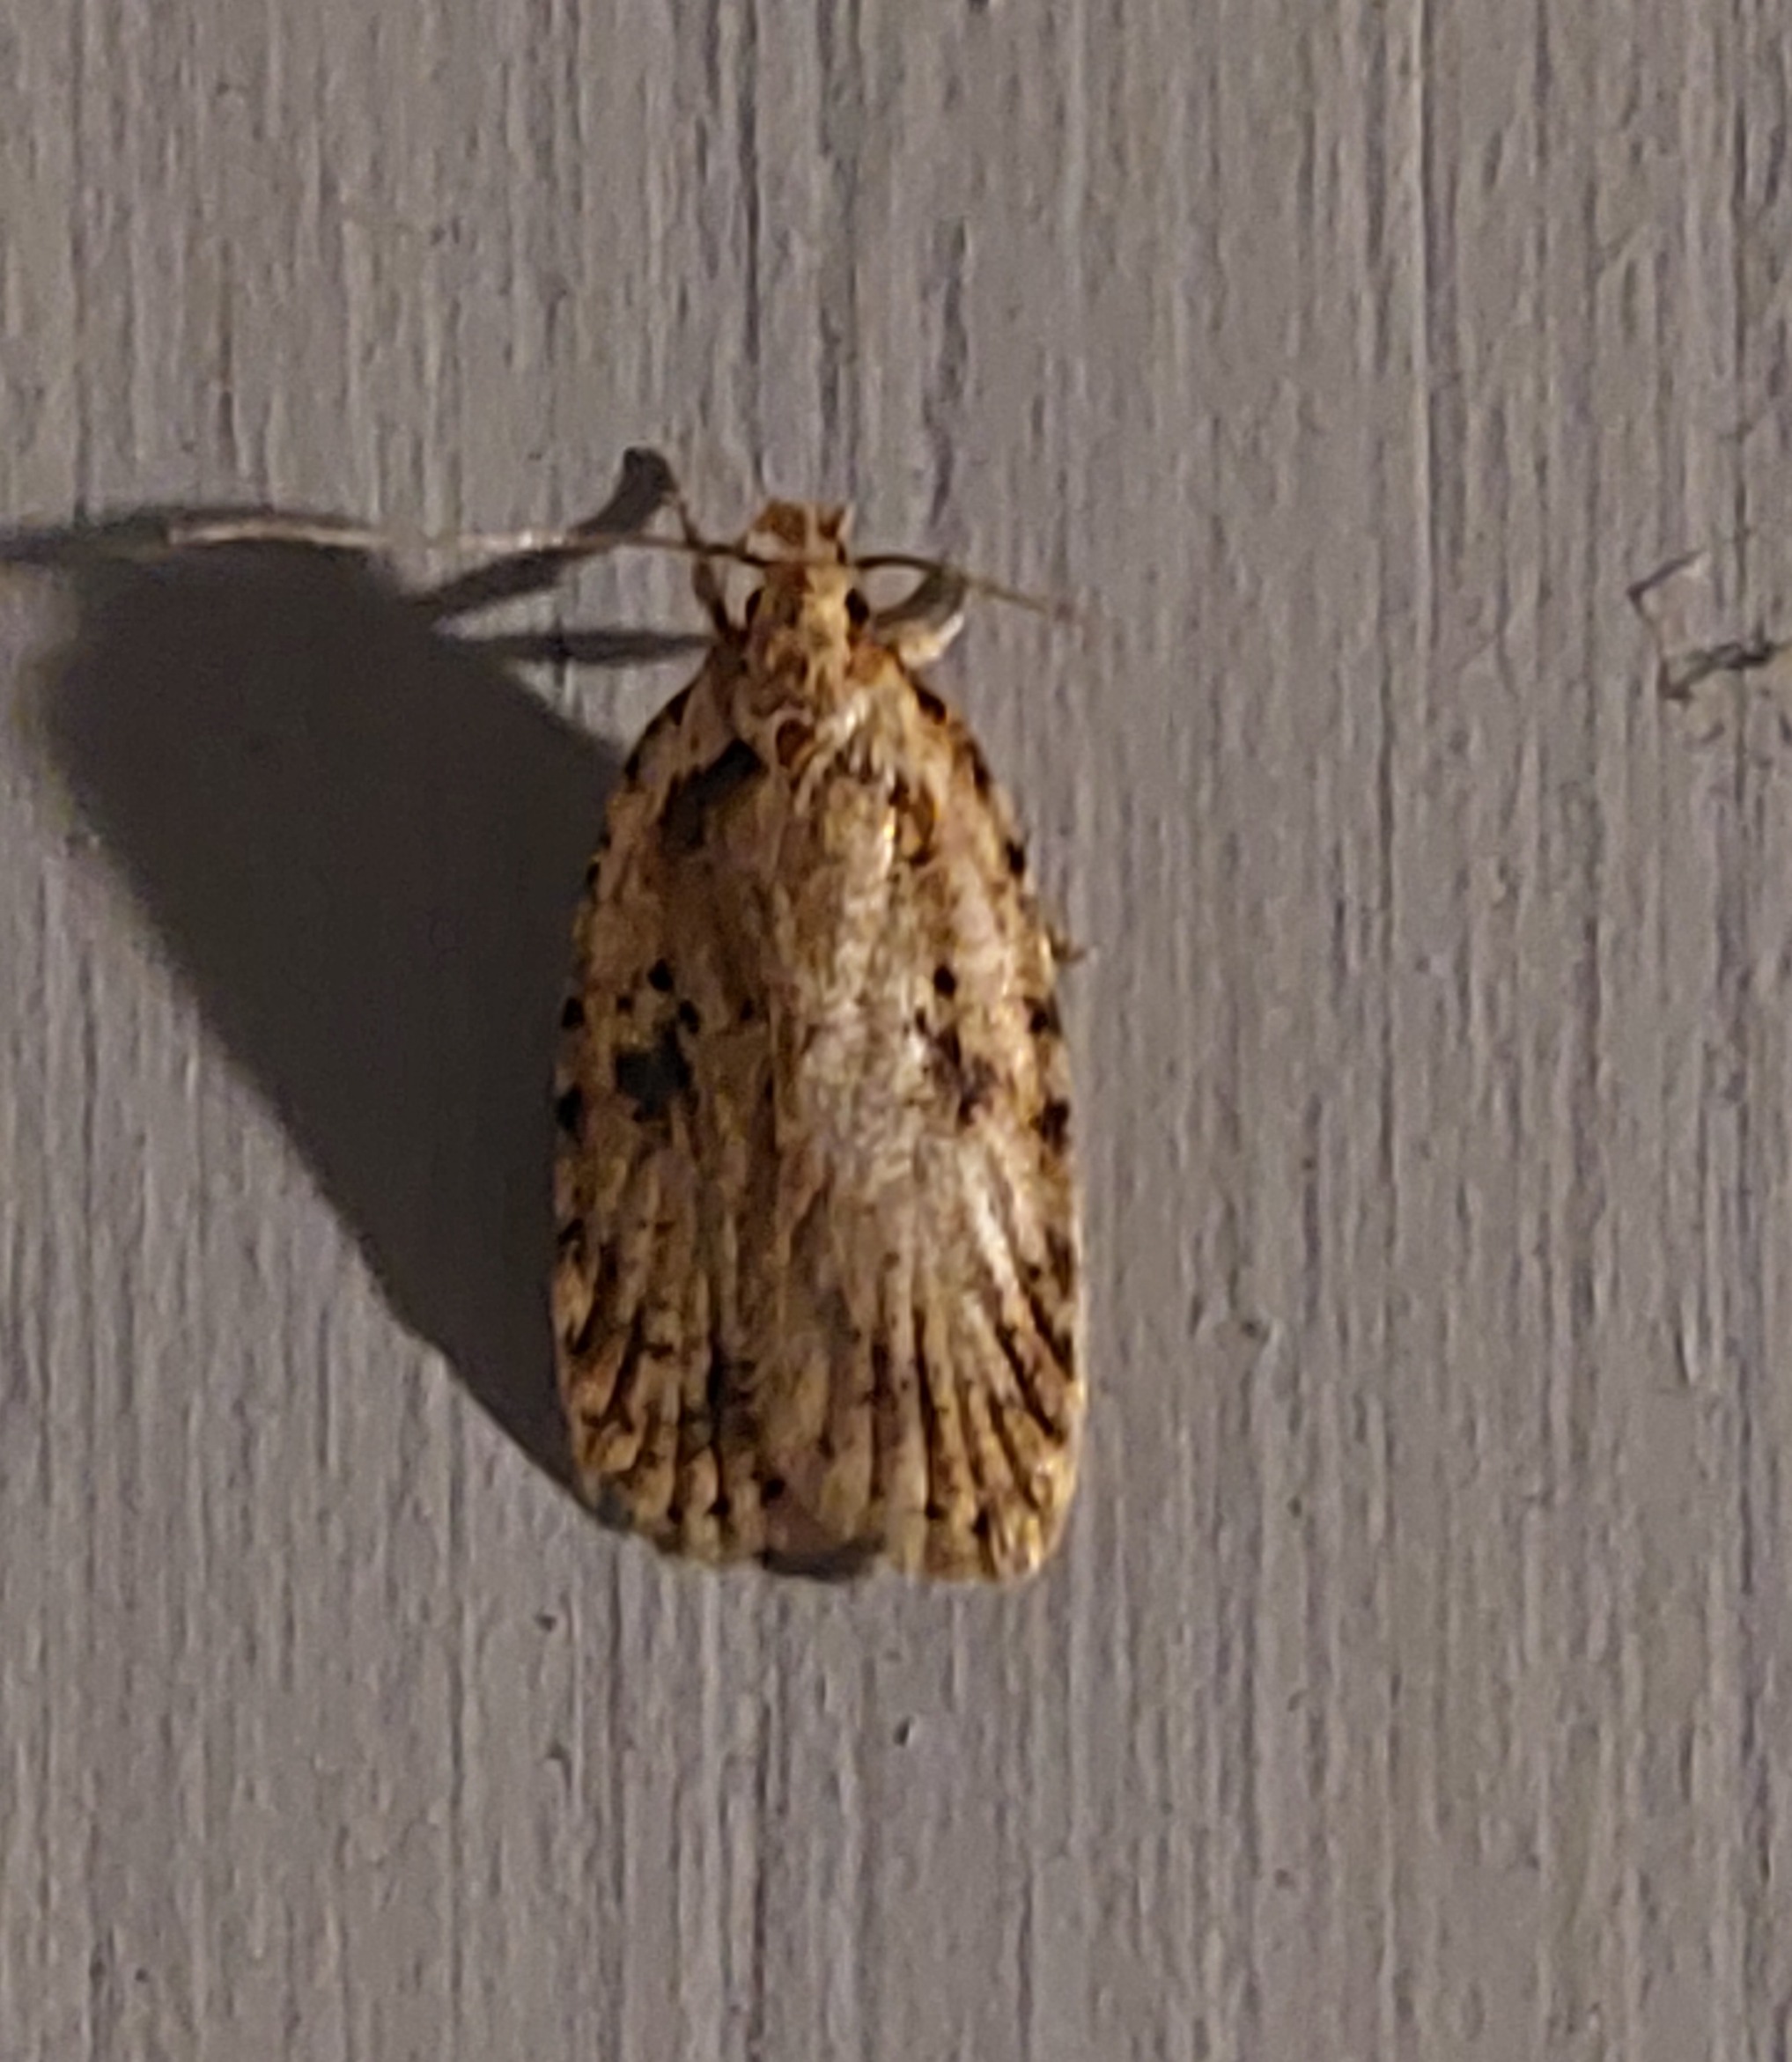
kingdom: Animalia
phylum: Arthropoda
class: Insecta
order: Lepidoptera
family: Depressariidae
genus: Agonopterix
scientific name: Agonopterix arenella
